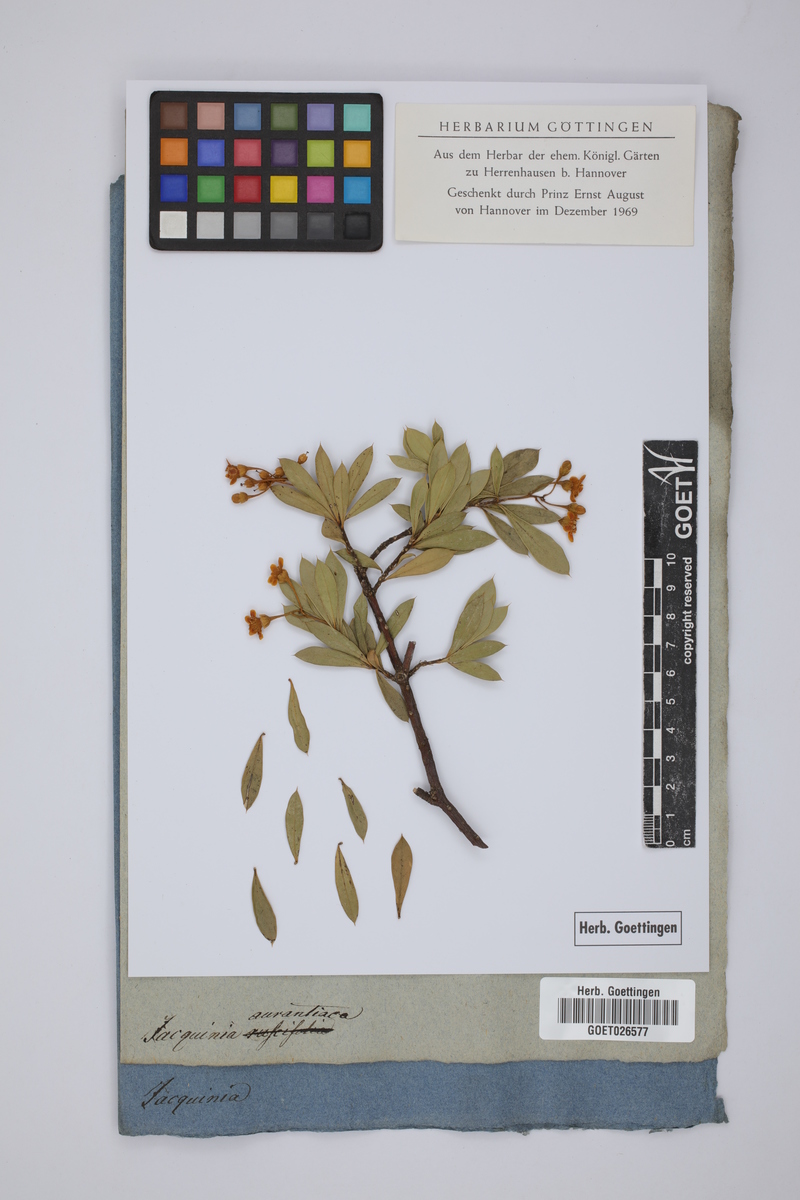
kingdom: Plantae
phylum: Tracheophyta
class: Magnoliopsida
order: Ericales
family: Primulaceae
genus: Bonellia
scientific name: Bonellia macrocarpa
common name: Primrose
